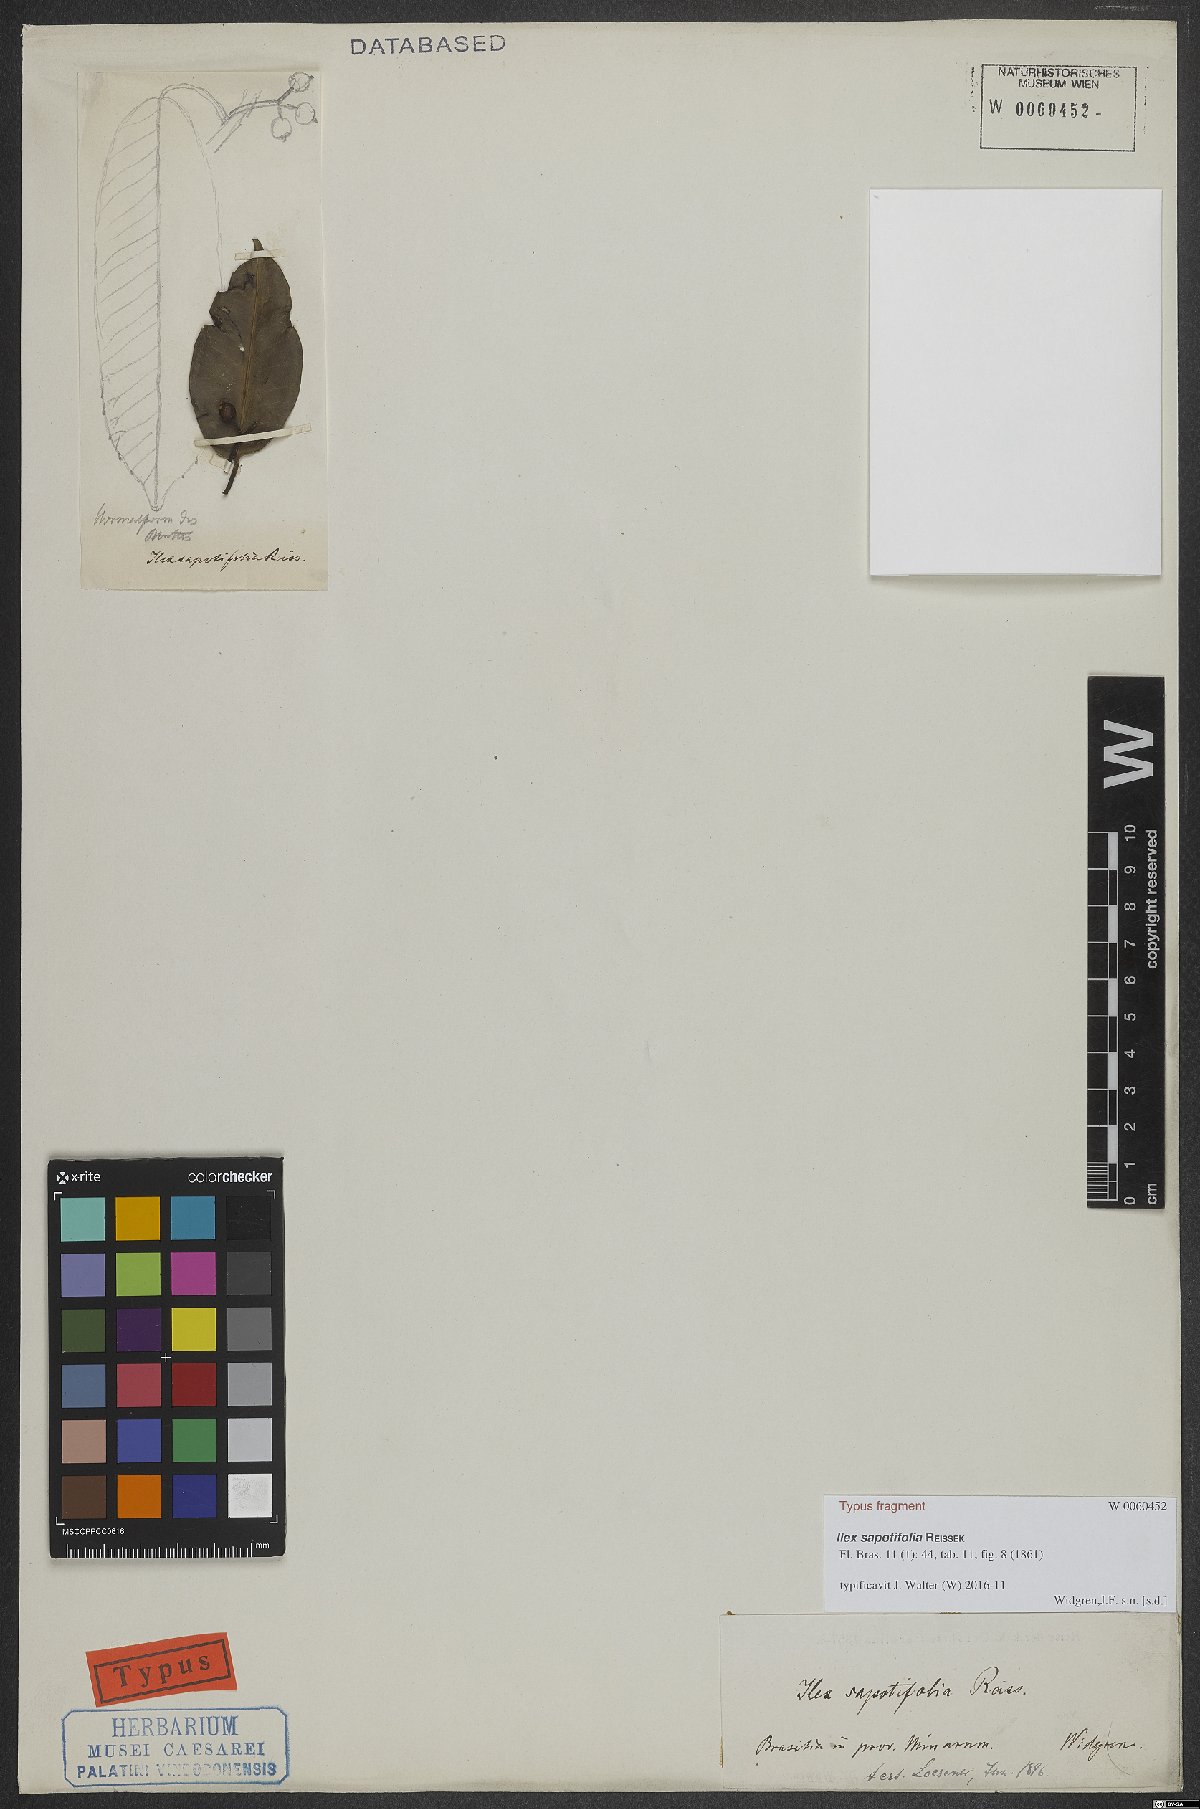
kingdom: Plantae
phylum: Tracheophyta
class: Magnoliopsida
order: Aquifoliales
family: Aquifoliaceae
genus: Ilex
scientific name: Ilex sapotifolia
